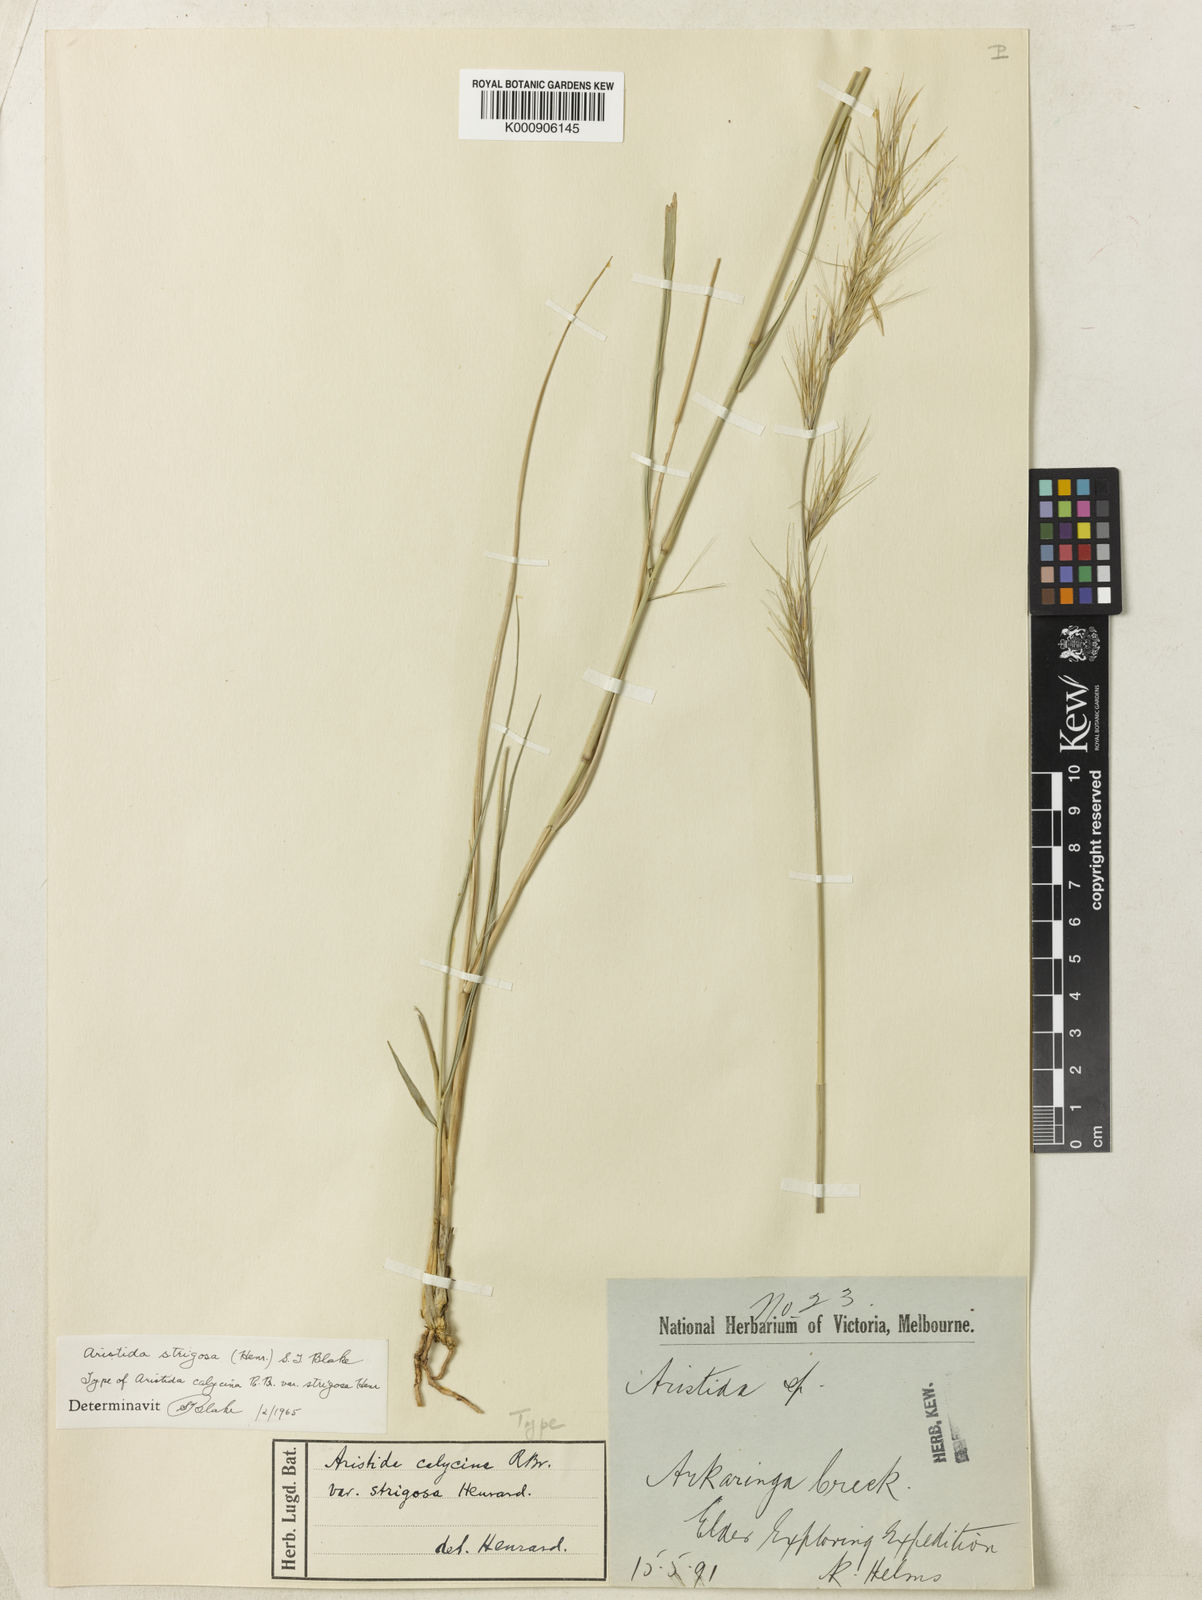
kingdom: Plantae
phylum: Tracheophyta
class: Liliopsida
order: Poales
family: Poaceae
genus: Aristida
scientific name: Aristida strigosa
